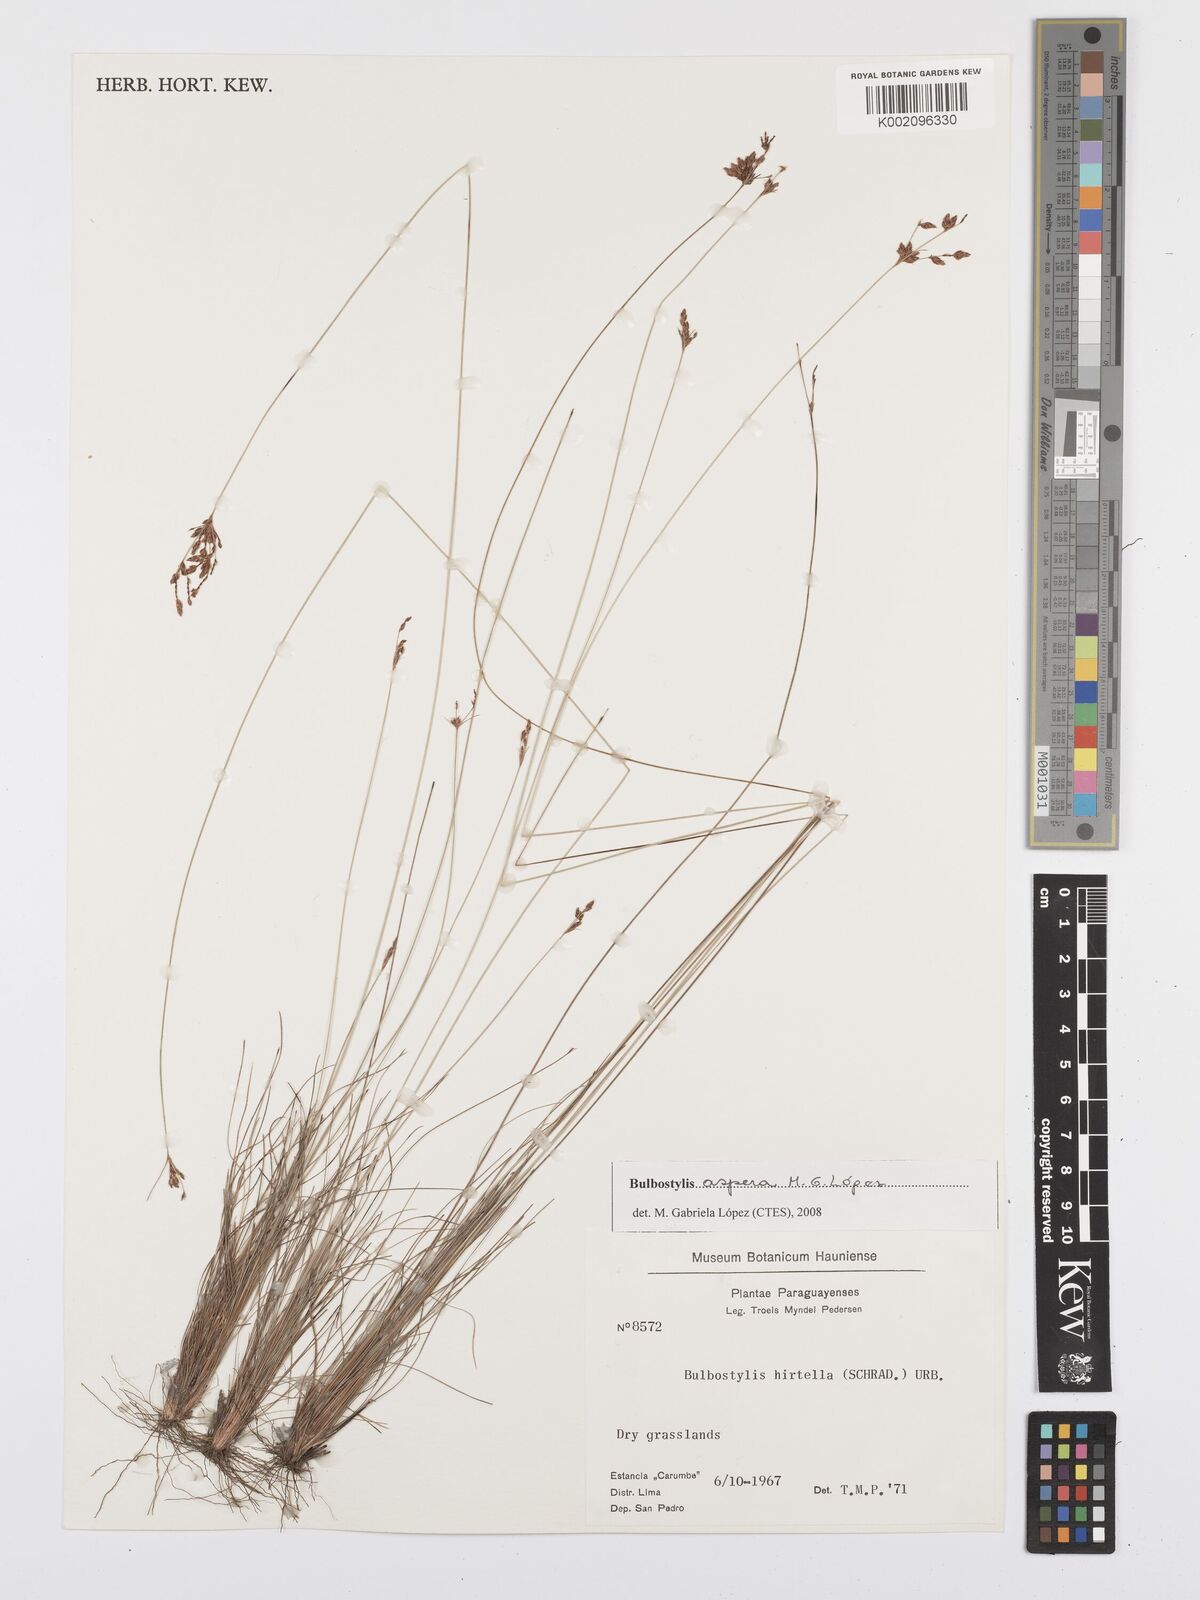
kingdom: Plantae
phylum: Tracheophyta
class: Liliopsida
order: Poales
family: Cyperaceae
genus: Bulbostylis
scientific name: Bulbostylis aspera
